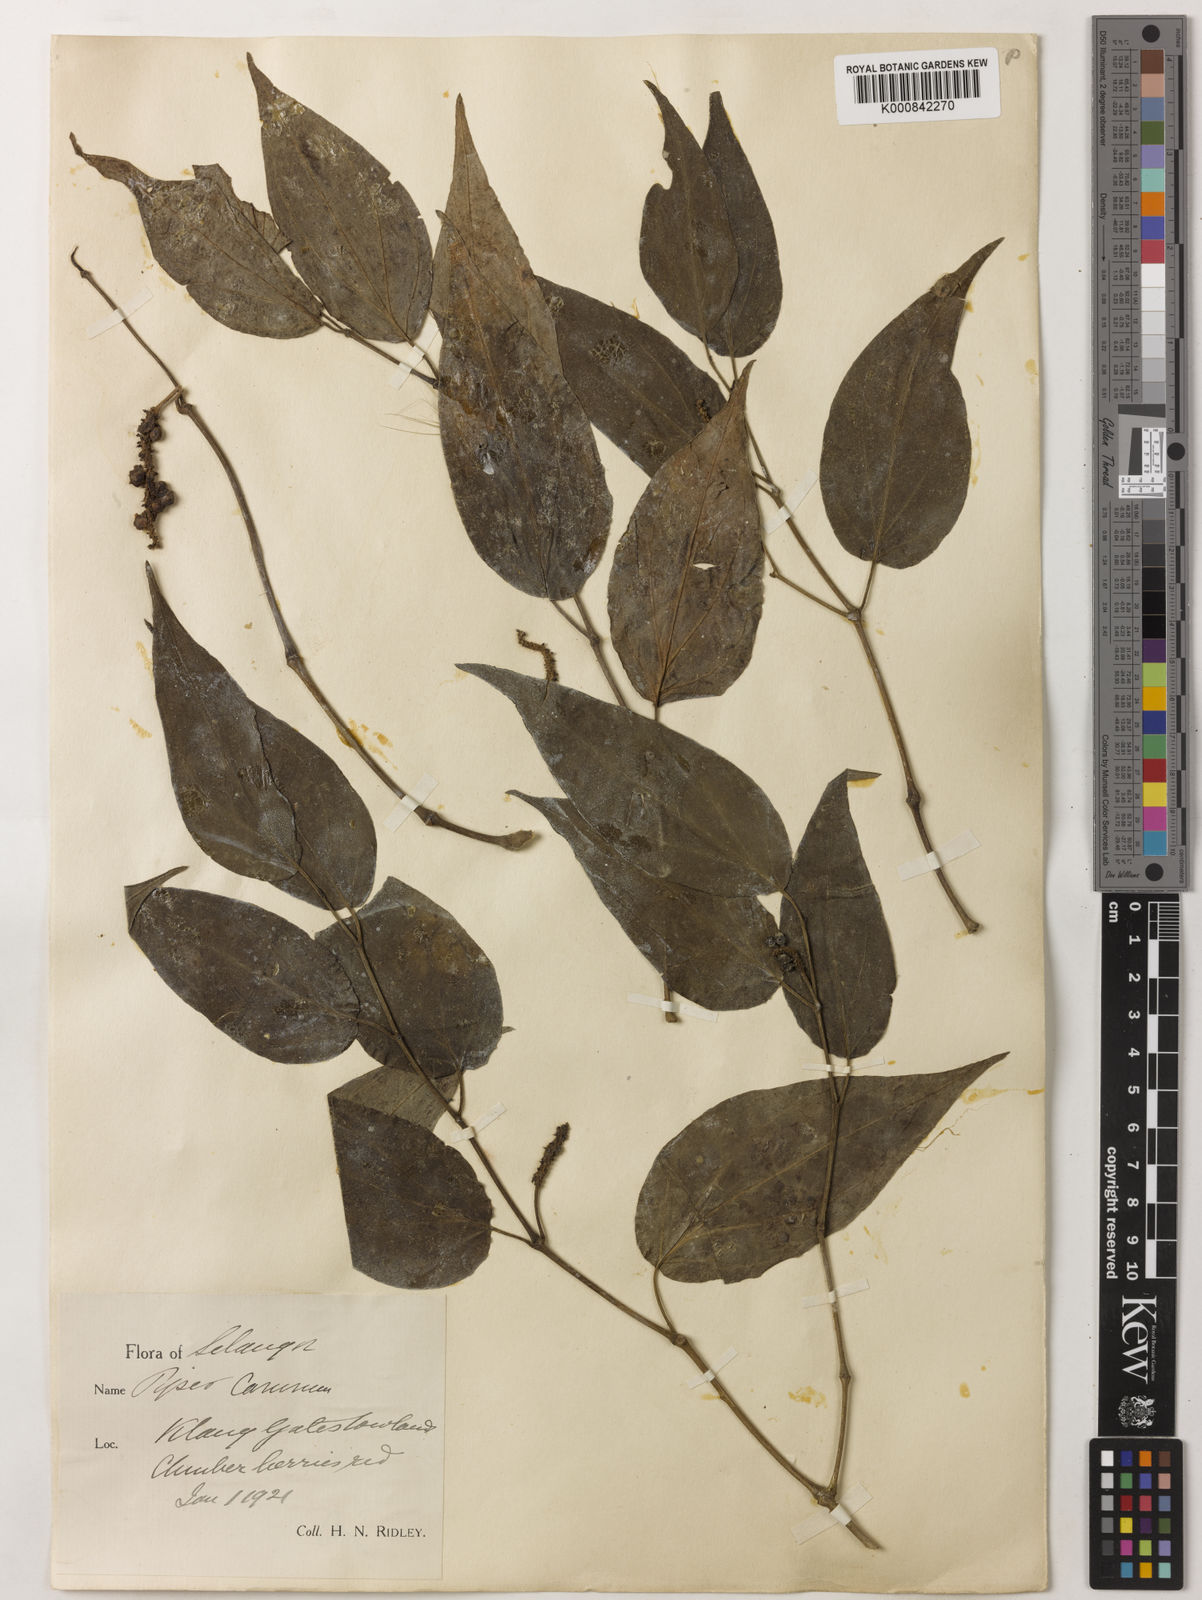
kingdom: Plantae
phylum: Tracheophyta
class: Magnoliopsida
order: Piperales
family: Piperaceae
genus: Piper
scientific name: Piper lanatum
